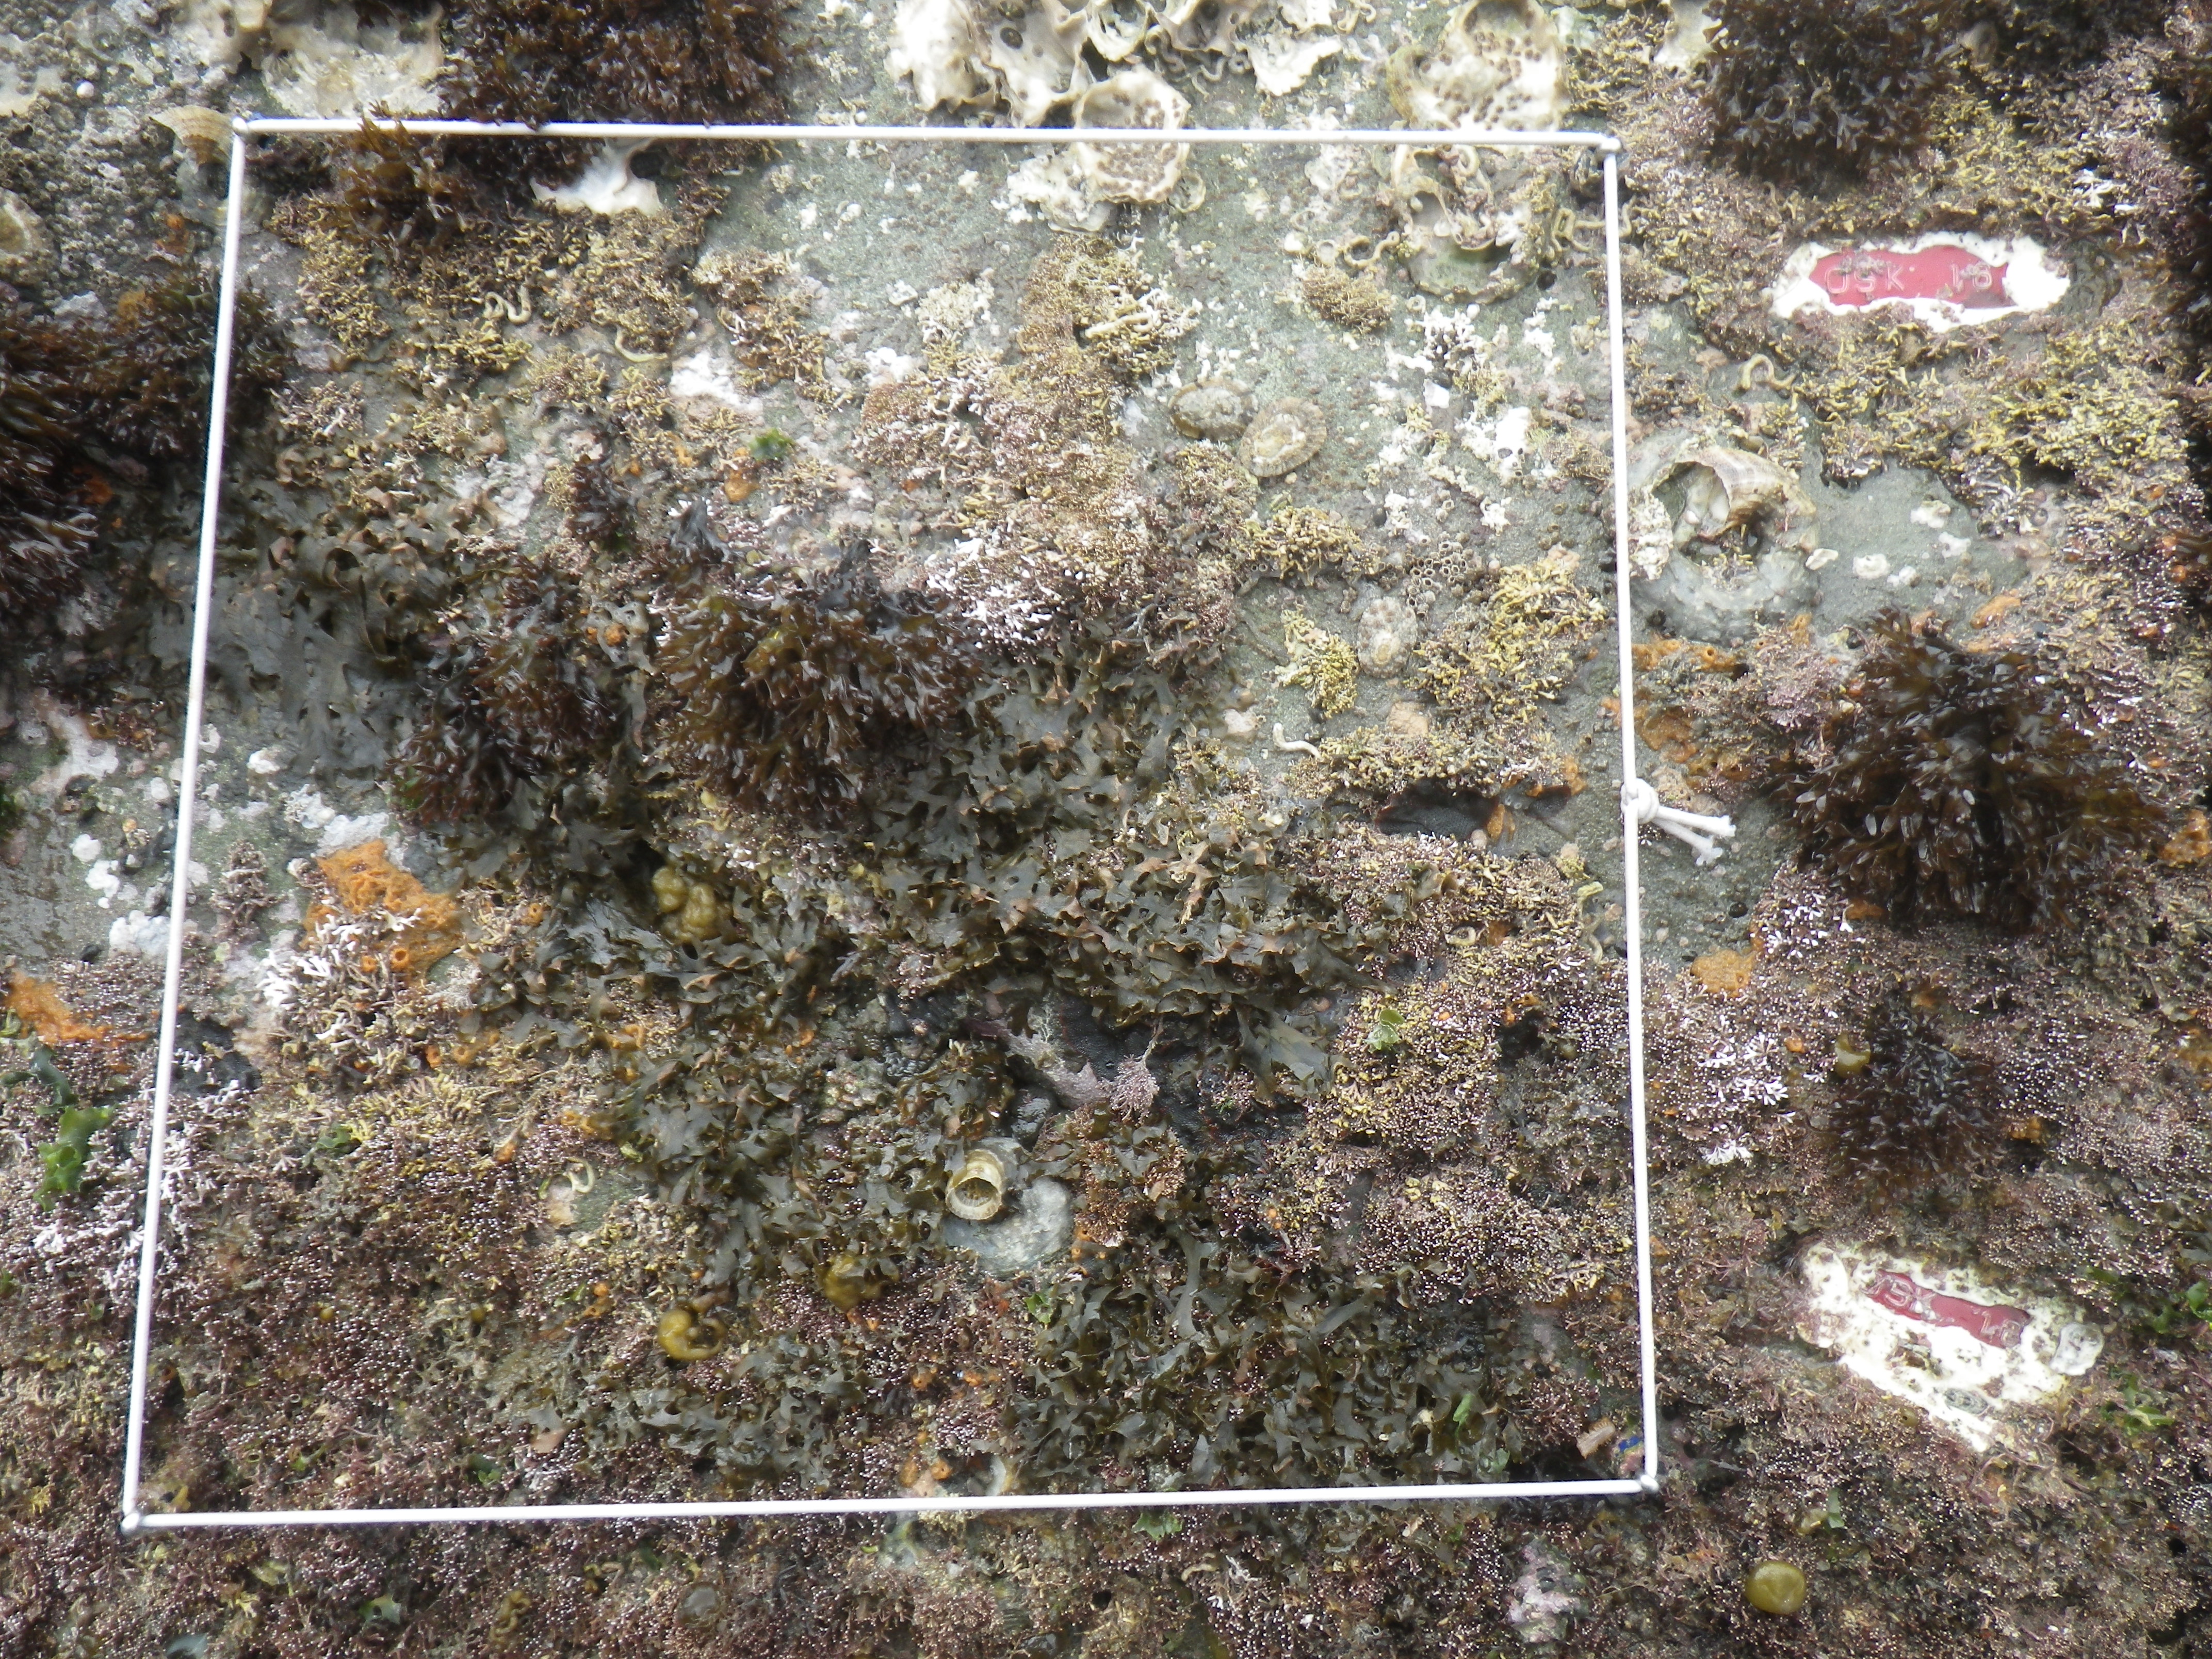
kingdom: Animalia
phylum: Arthropoda
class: Maxillopoda
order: Sessilia
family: Chthamalidae
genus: Chthamalus
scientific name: Chthamalus challengeri
